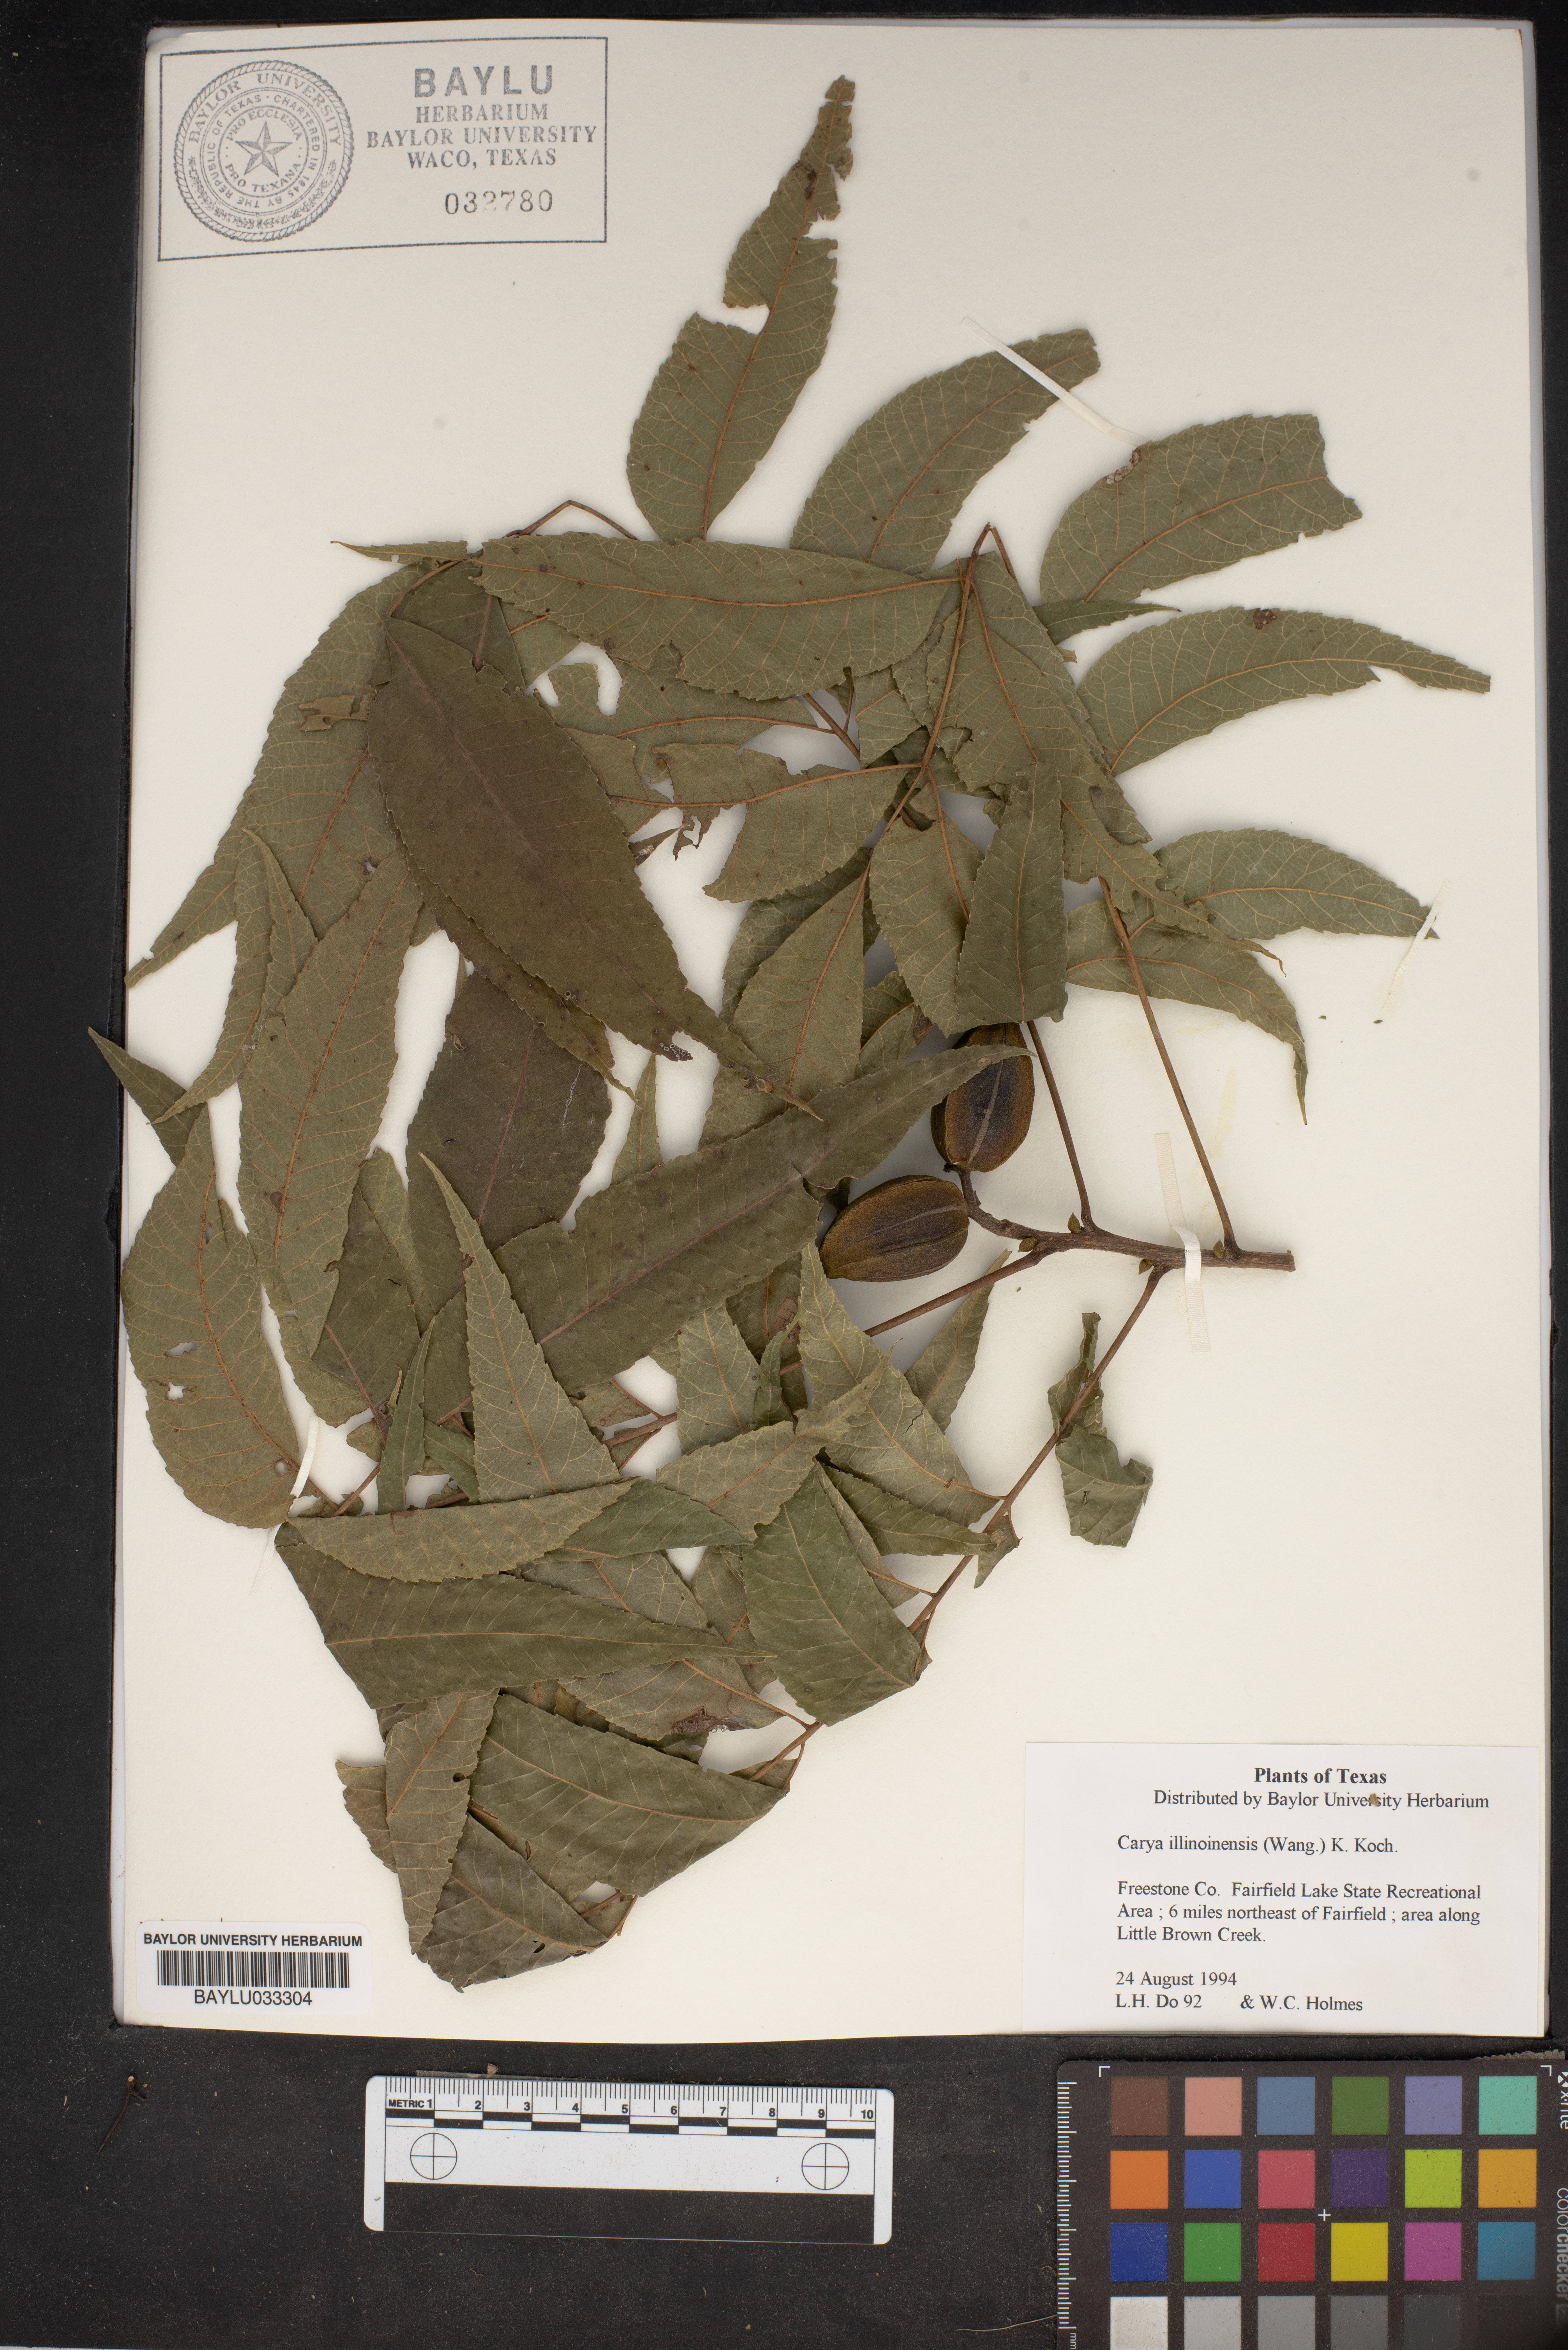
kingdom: Plantae
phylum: Tracheophyta
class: Magnoliopsida
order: Fagales
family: Juglandaceae
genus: Carya
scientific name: Carya illinoinensis
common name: Pecan
